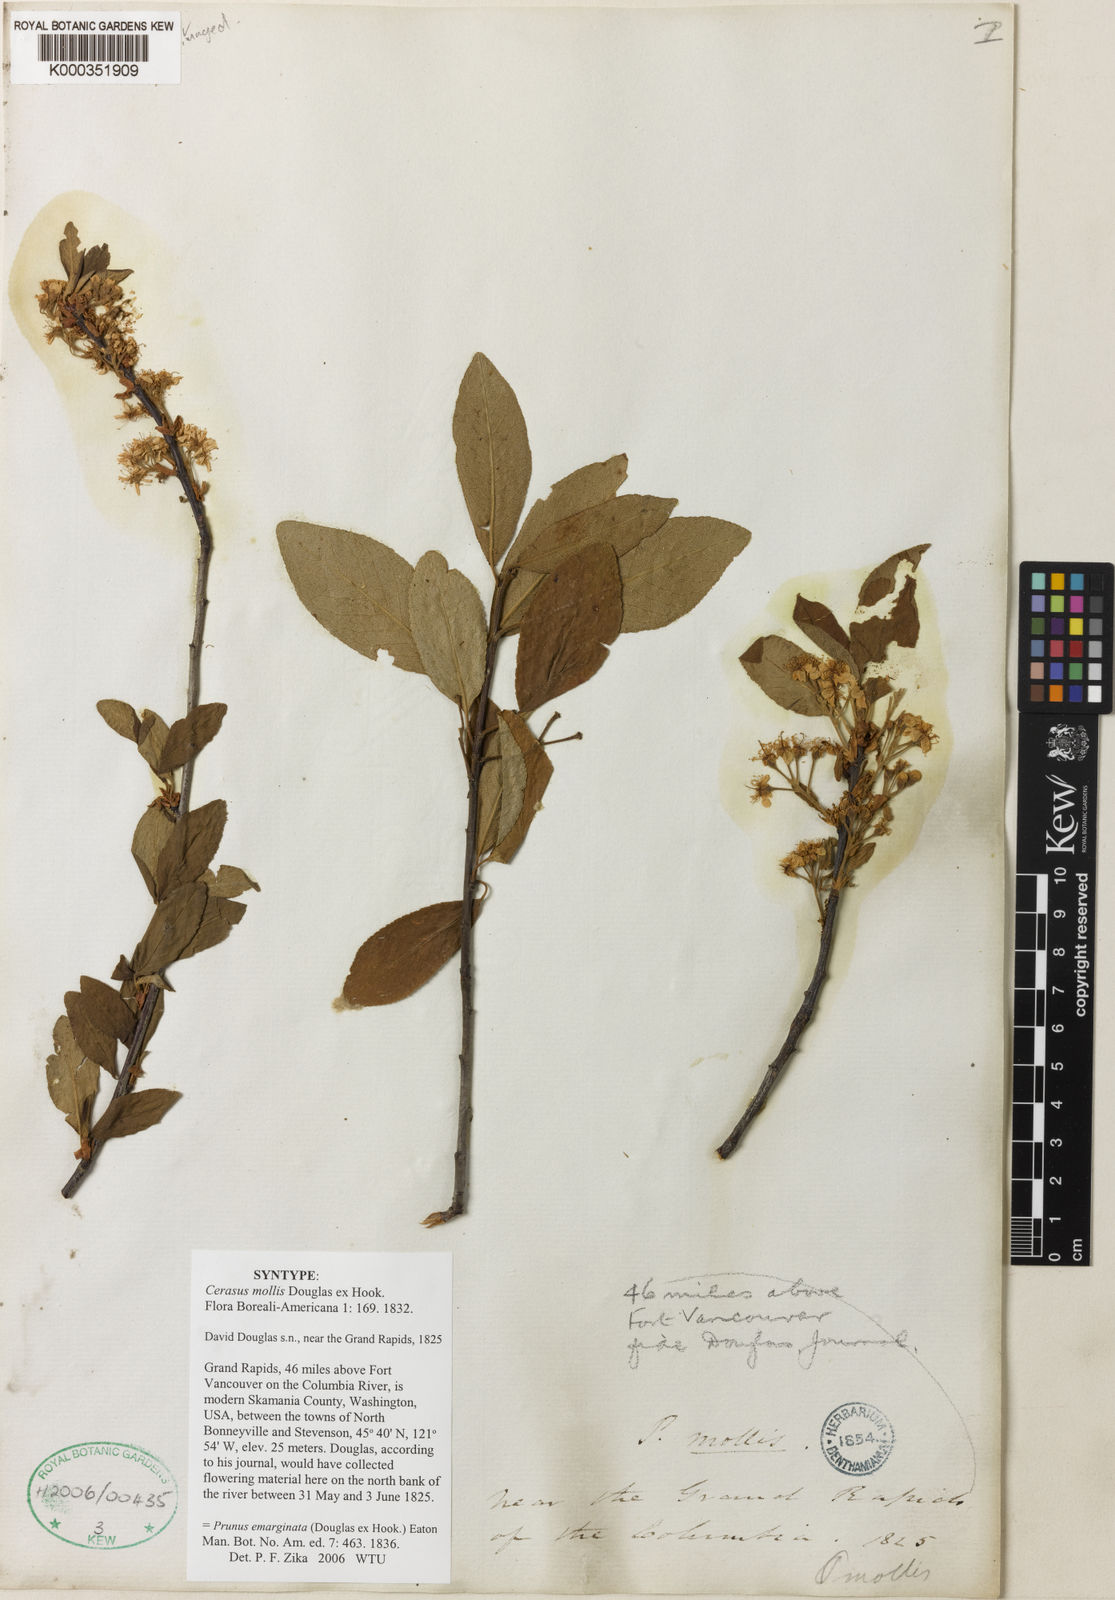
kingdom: Plantae
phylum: Tracheophyta
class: Magnoliopsida
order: Rosales
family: Rosaceae
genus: Prunus
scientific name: Prunus emarginata
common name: Bitter cherry
